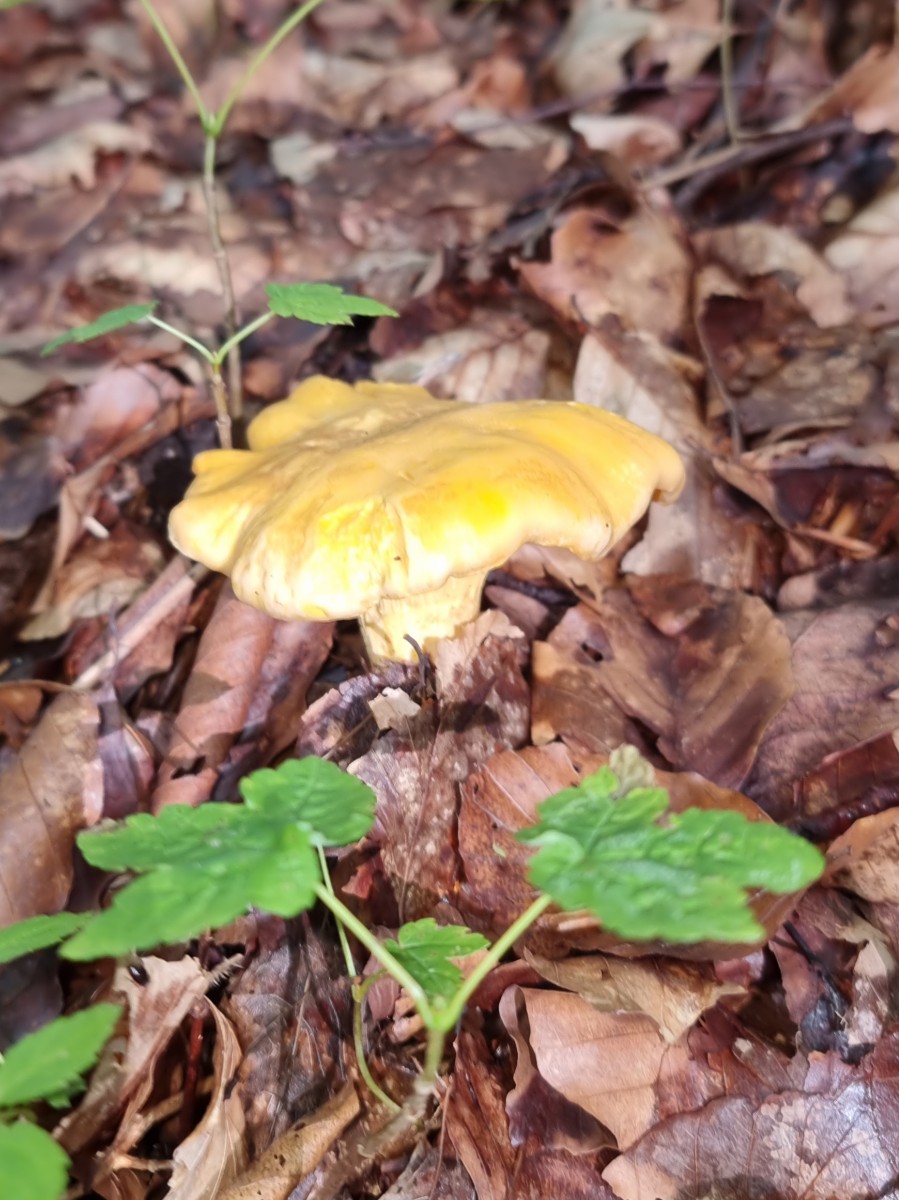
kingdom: Fungi
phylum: Basidiomycota
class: Agaricomycetes
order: Cantharellales
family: Hydnaceae
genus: Cantharellus
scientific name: Cantharellus pallens
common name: bleg kantarel
